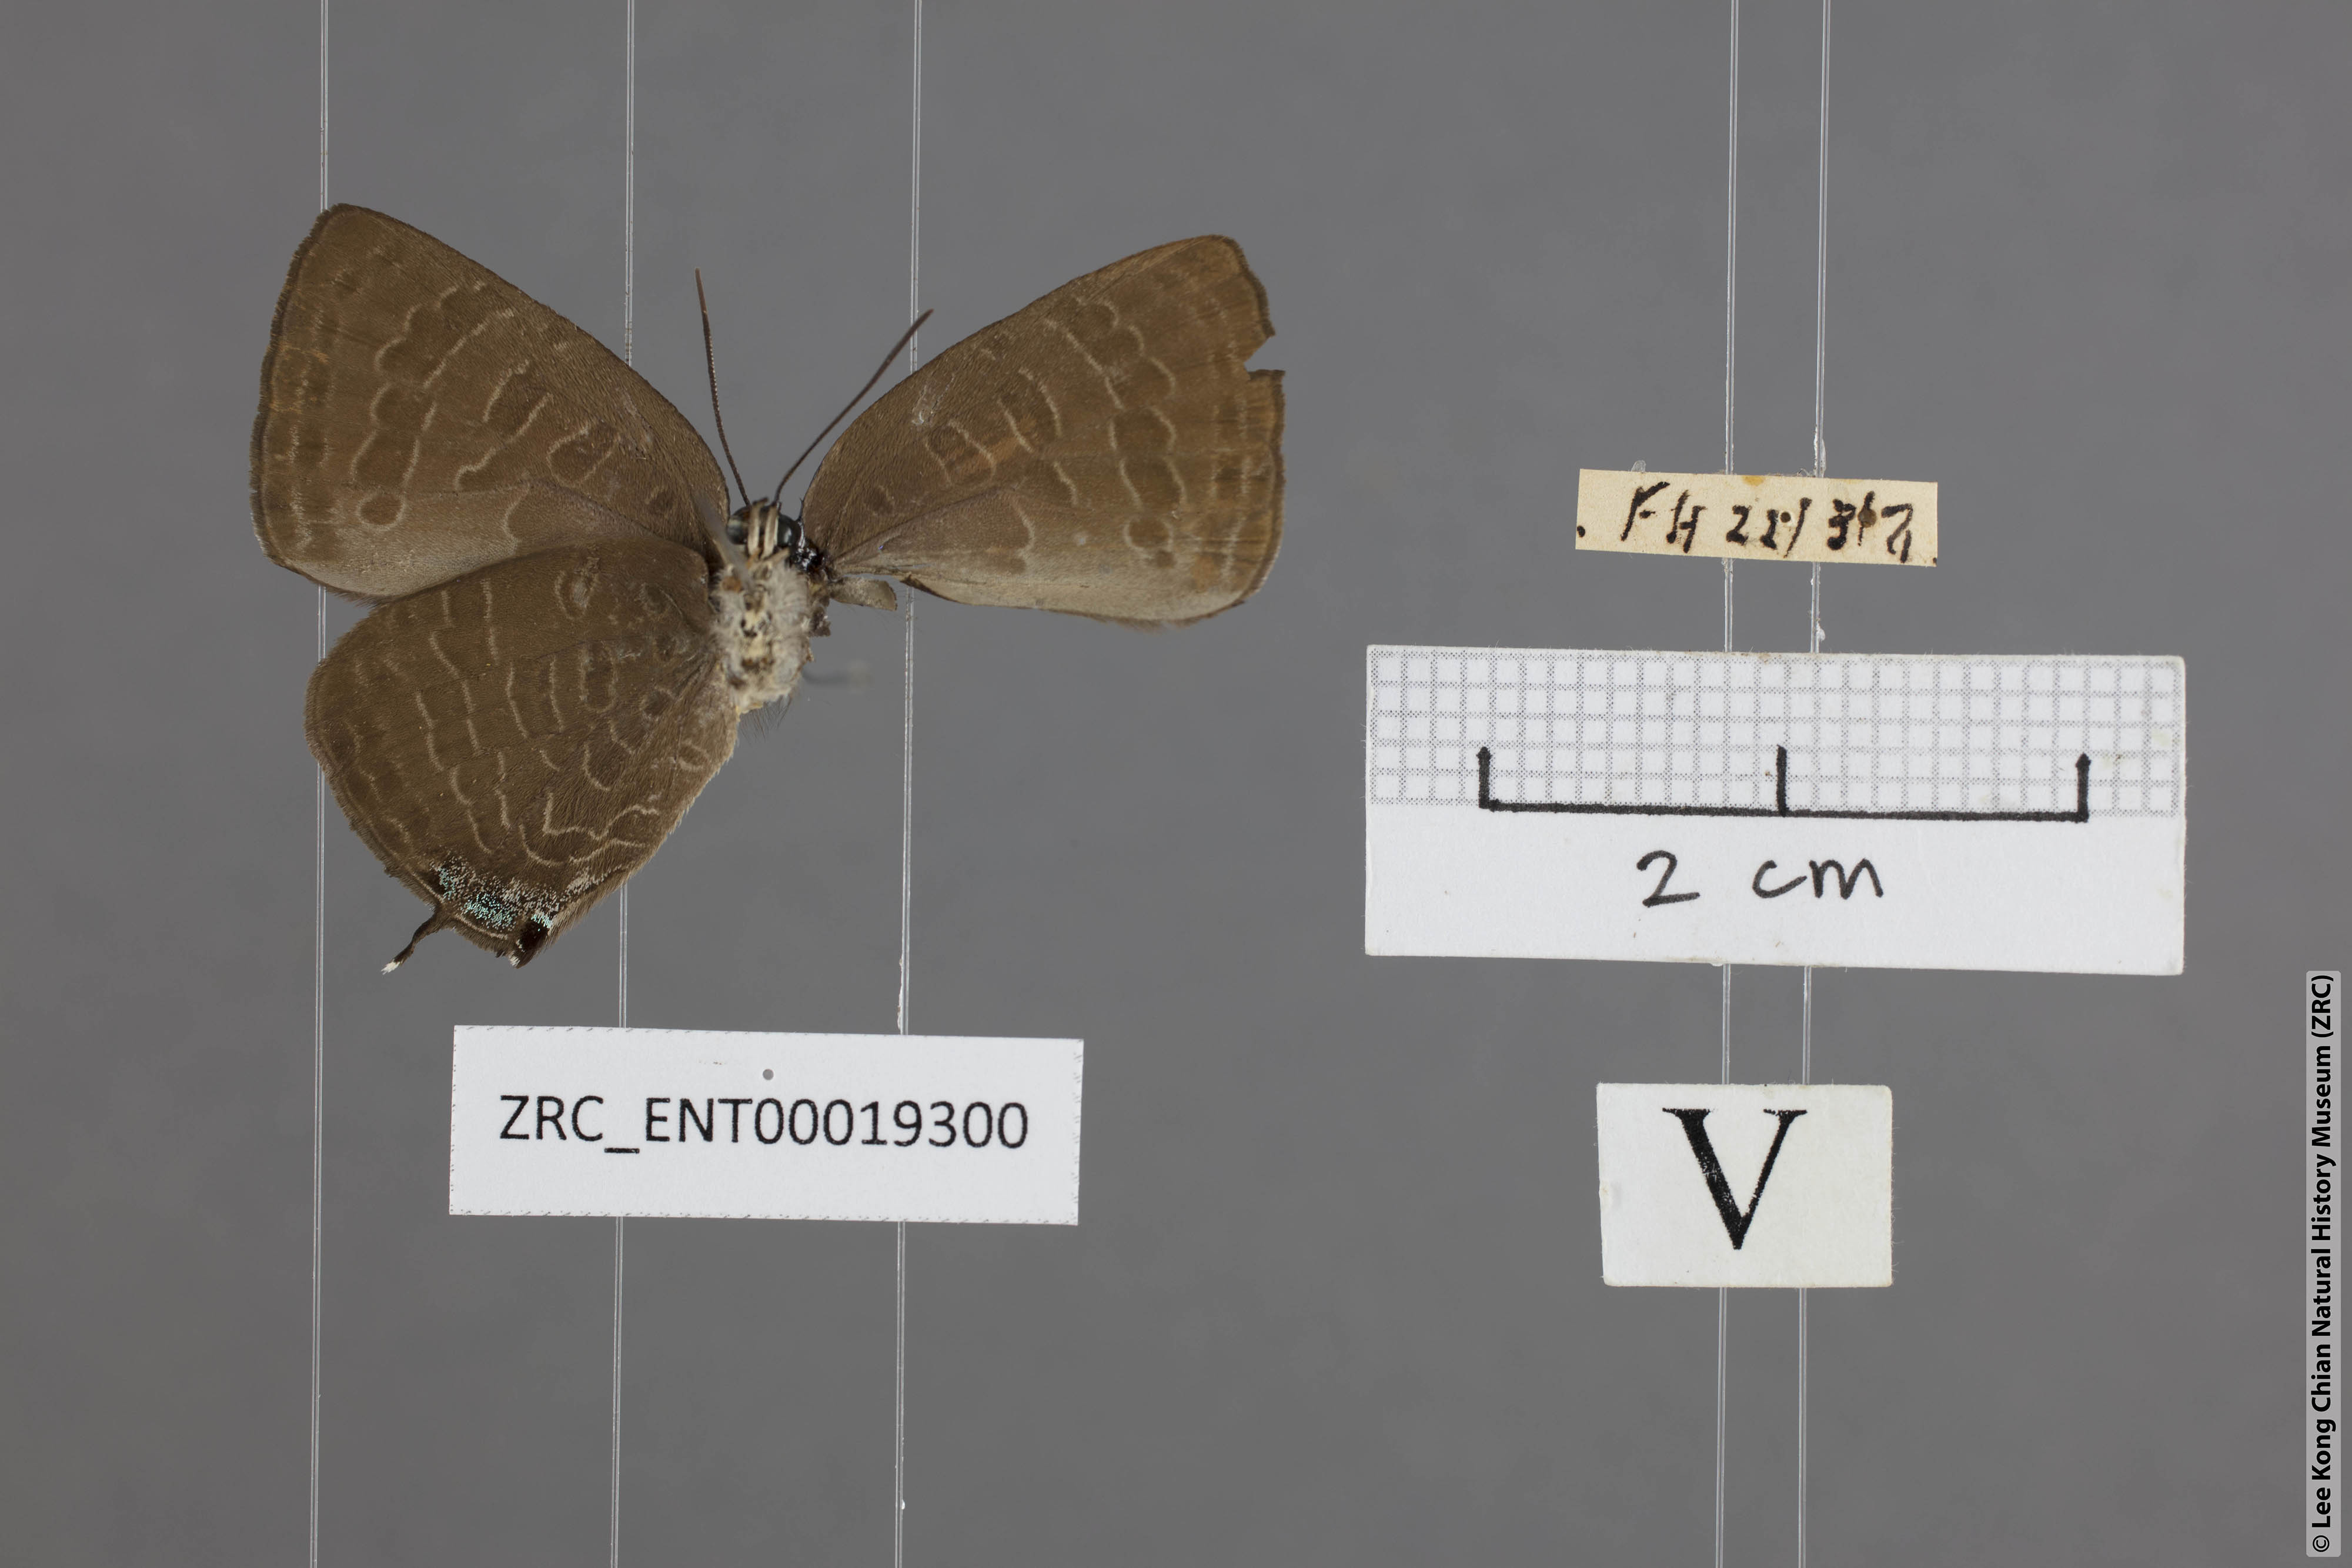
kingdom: Animalia
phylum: Arthropoda
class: Insecta
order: Lepidoptera
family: Lycaenidae
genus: Arhopala
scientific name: Arhopala azinis
